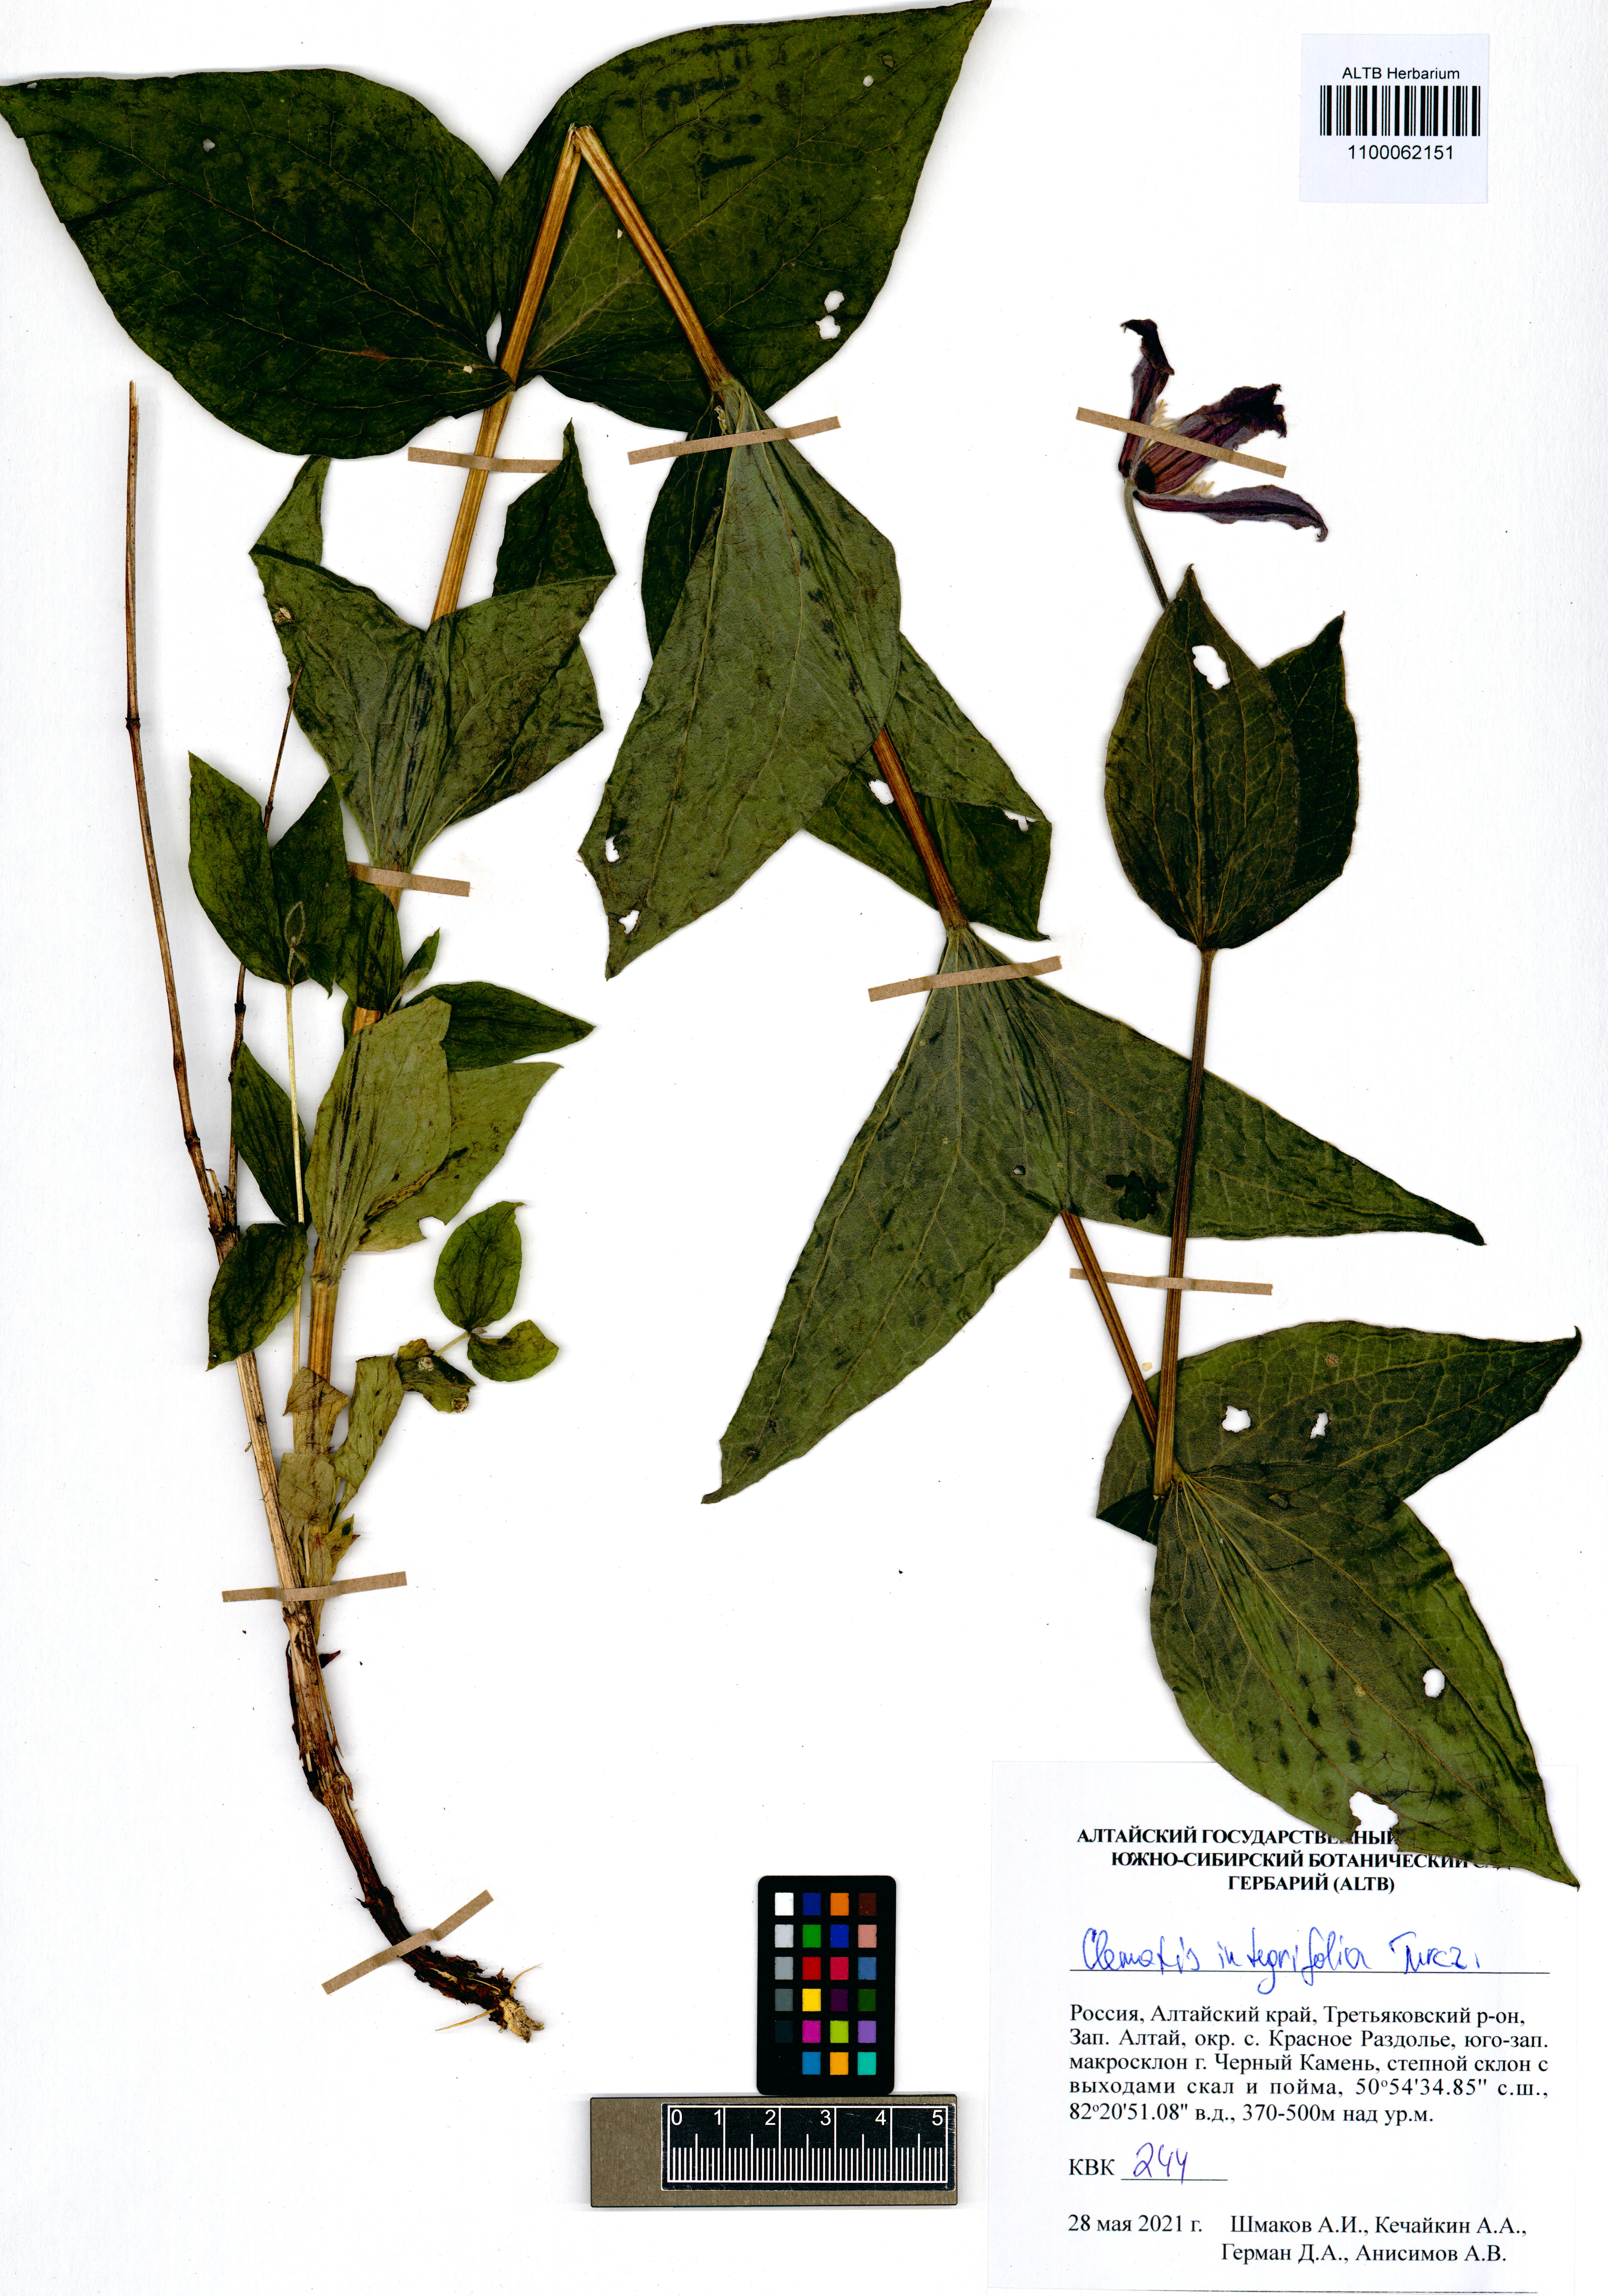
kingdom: Plantae
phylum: Tracheophyta
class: Magnoliopsida
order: Ranunculales
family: Ranunculaceae
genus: Clematis
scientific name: Clematis integrifolia
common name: Solitary clematis
